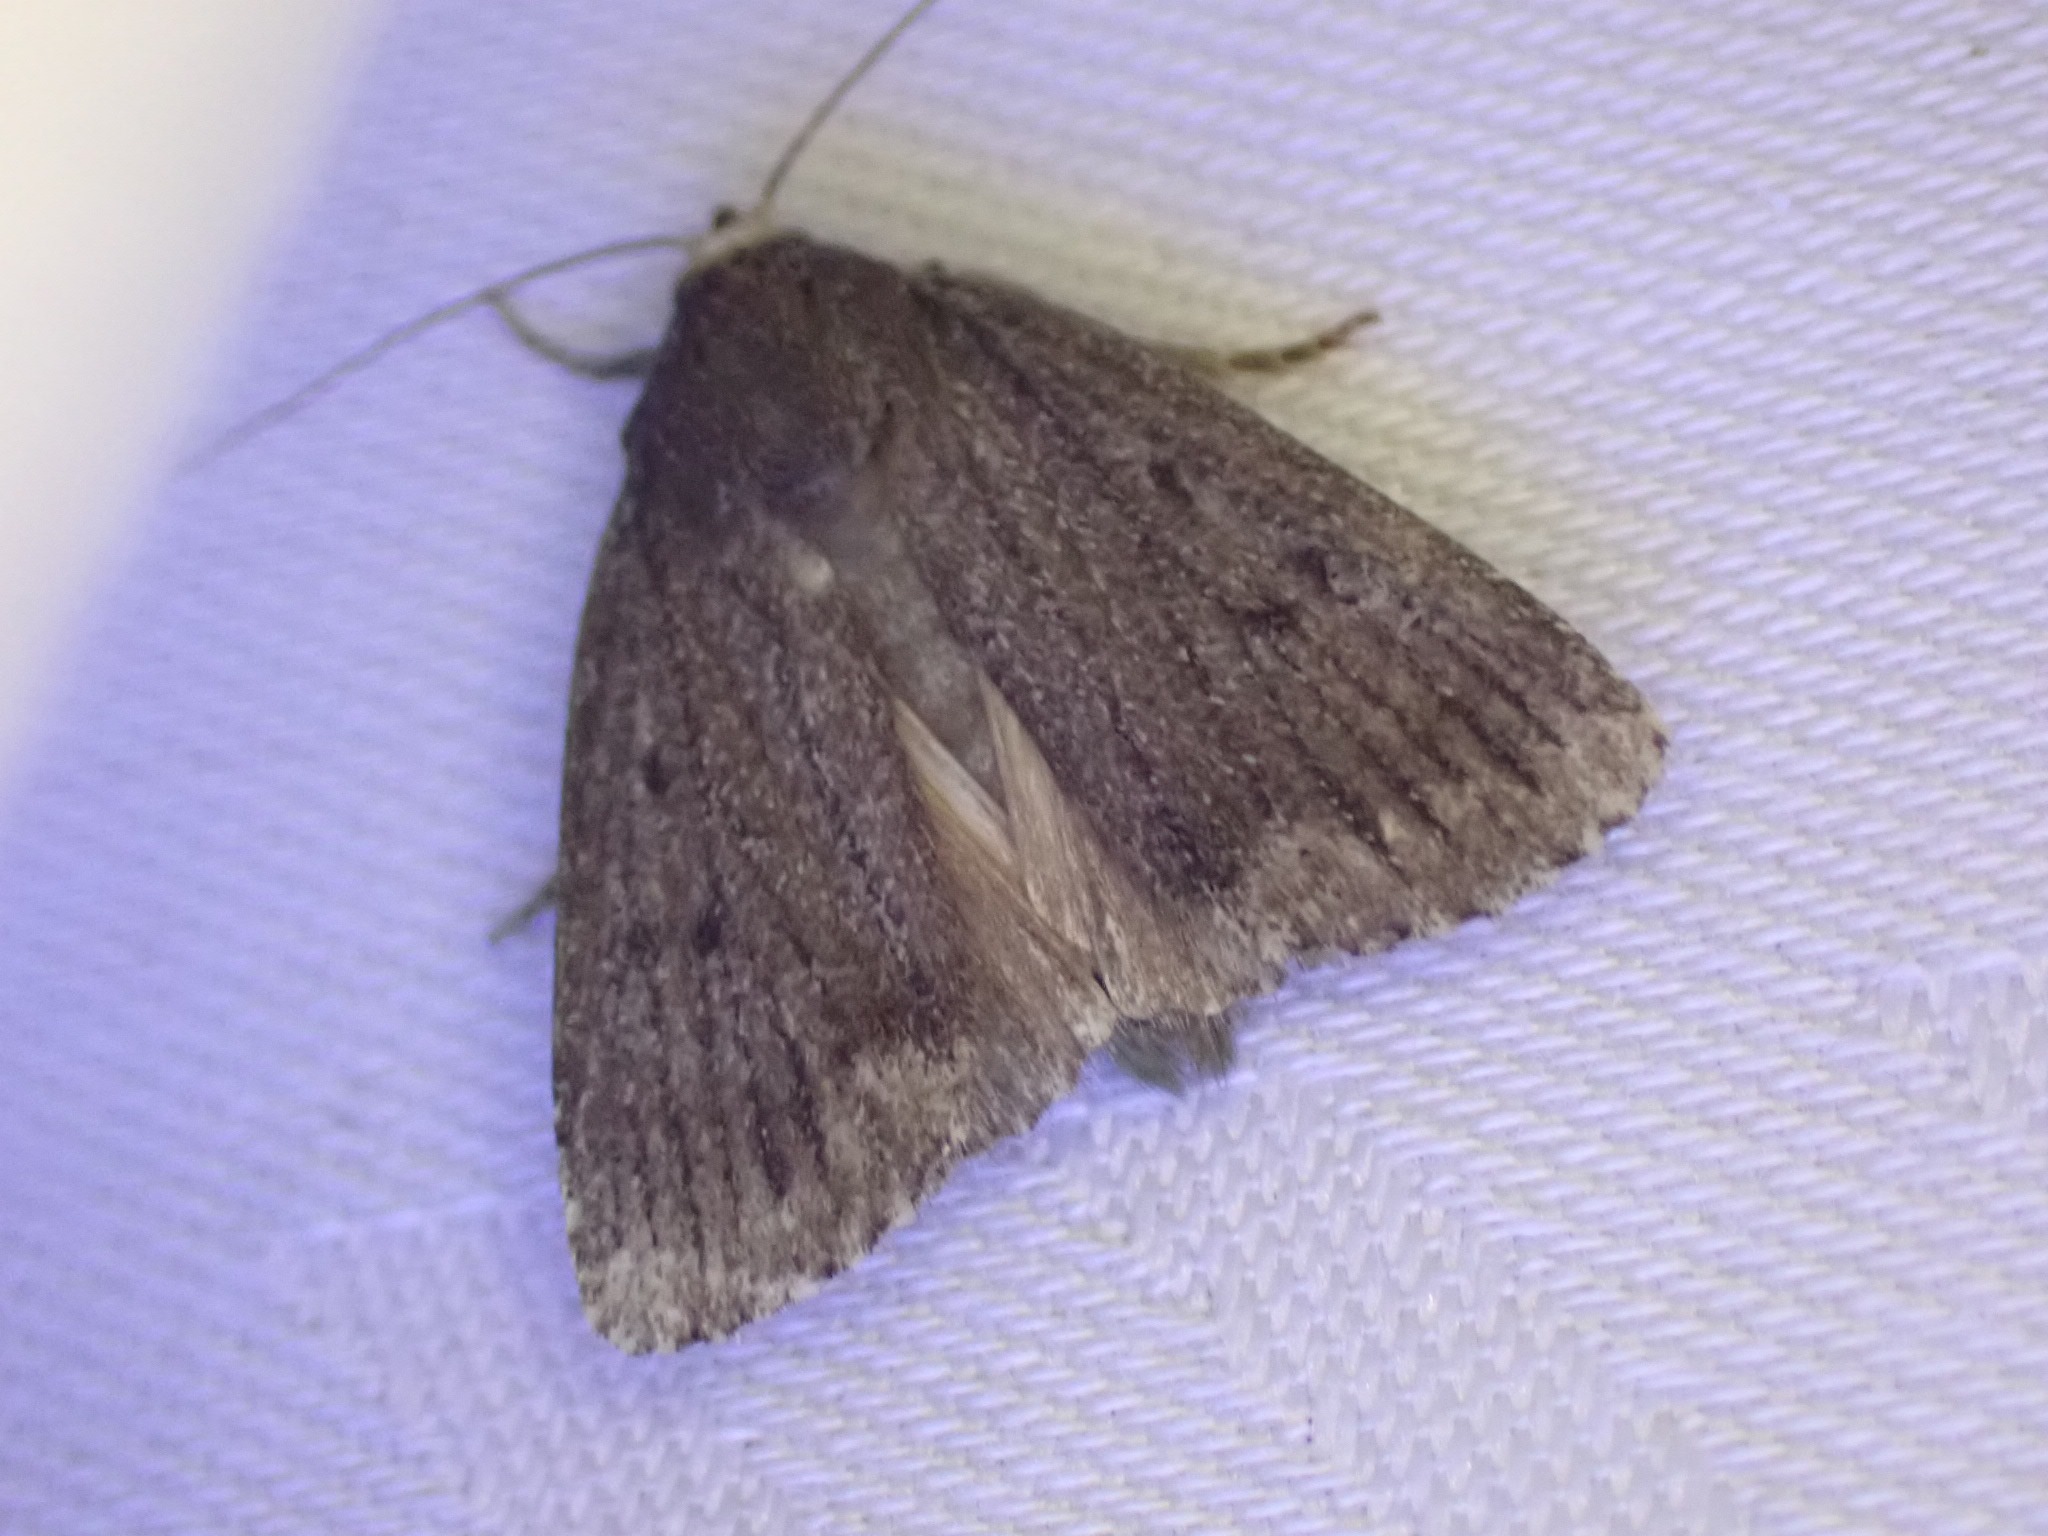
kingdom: Animalia
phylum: Arthropoda
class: Insecta
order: Lepidoptera
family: Noctuidae
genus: Amphipyra
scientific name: Amphipyra tragopoginis
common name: Blyantsugle
